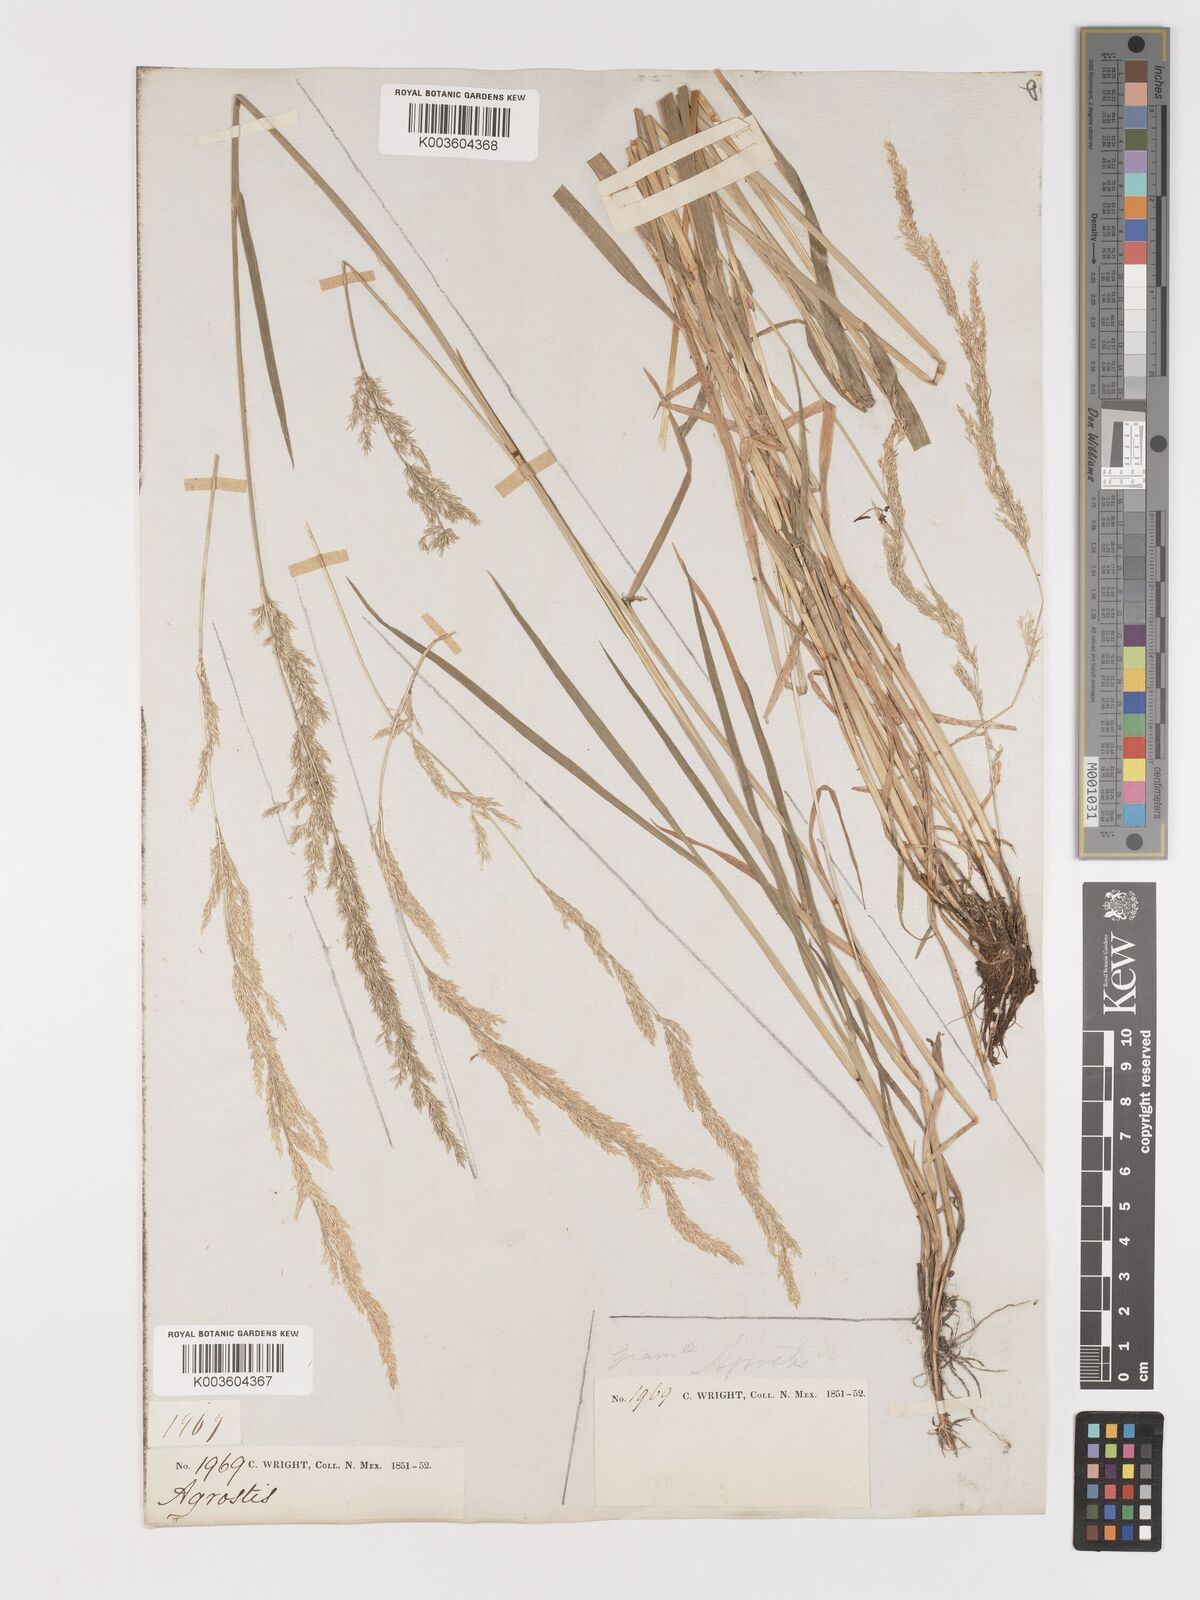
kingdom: Plantae
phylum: Tracheophyta
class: Liliopsida
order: Poales
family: Poaceae
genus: Agrostis
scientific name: Agrostis exarata
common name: Spike bent
